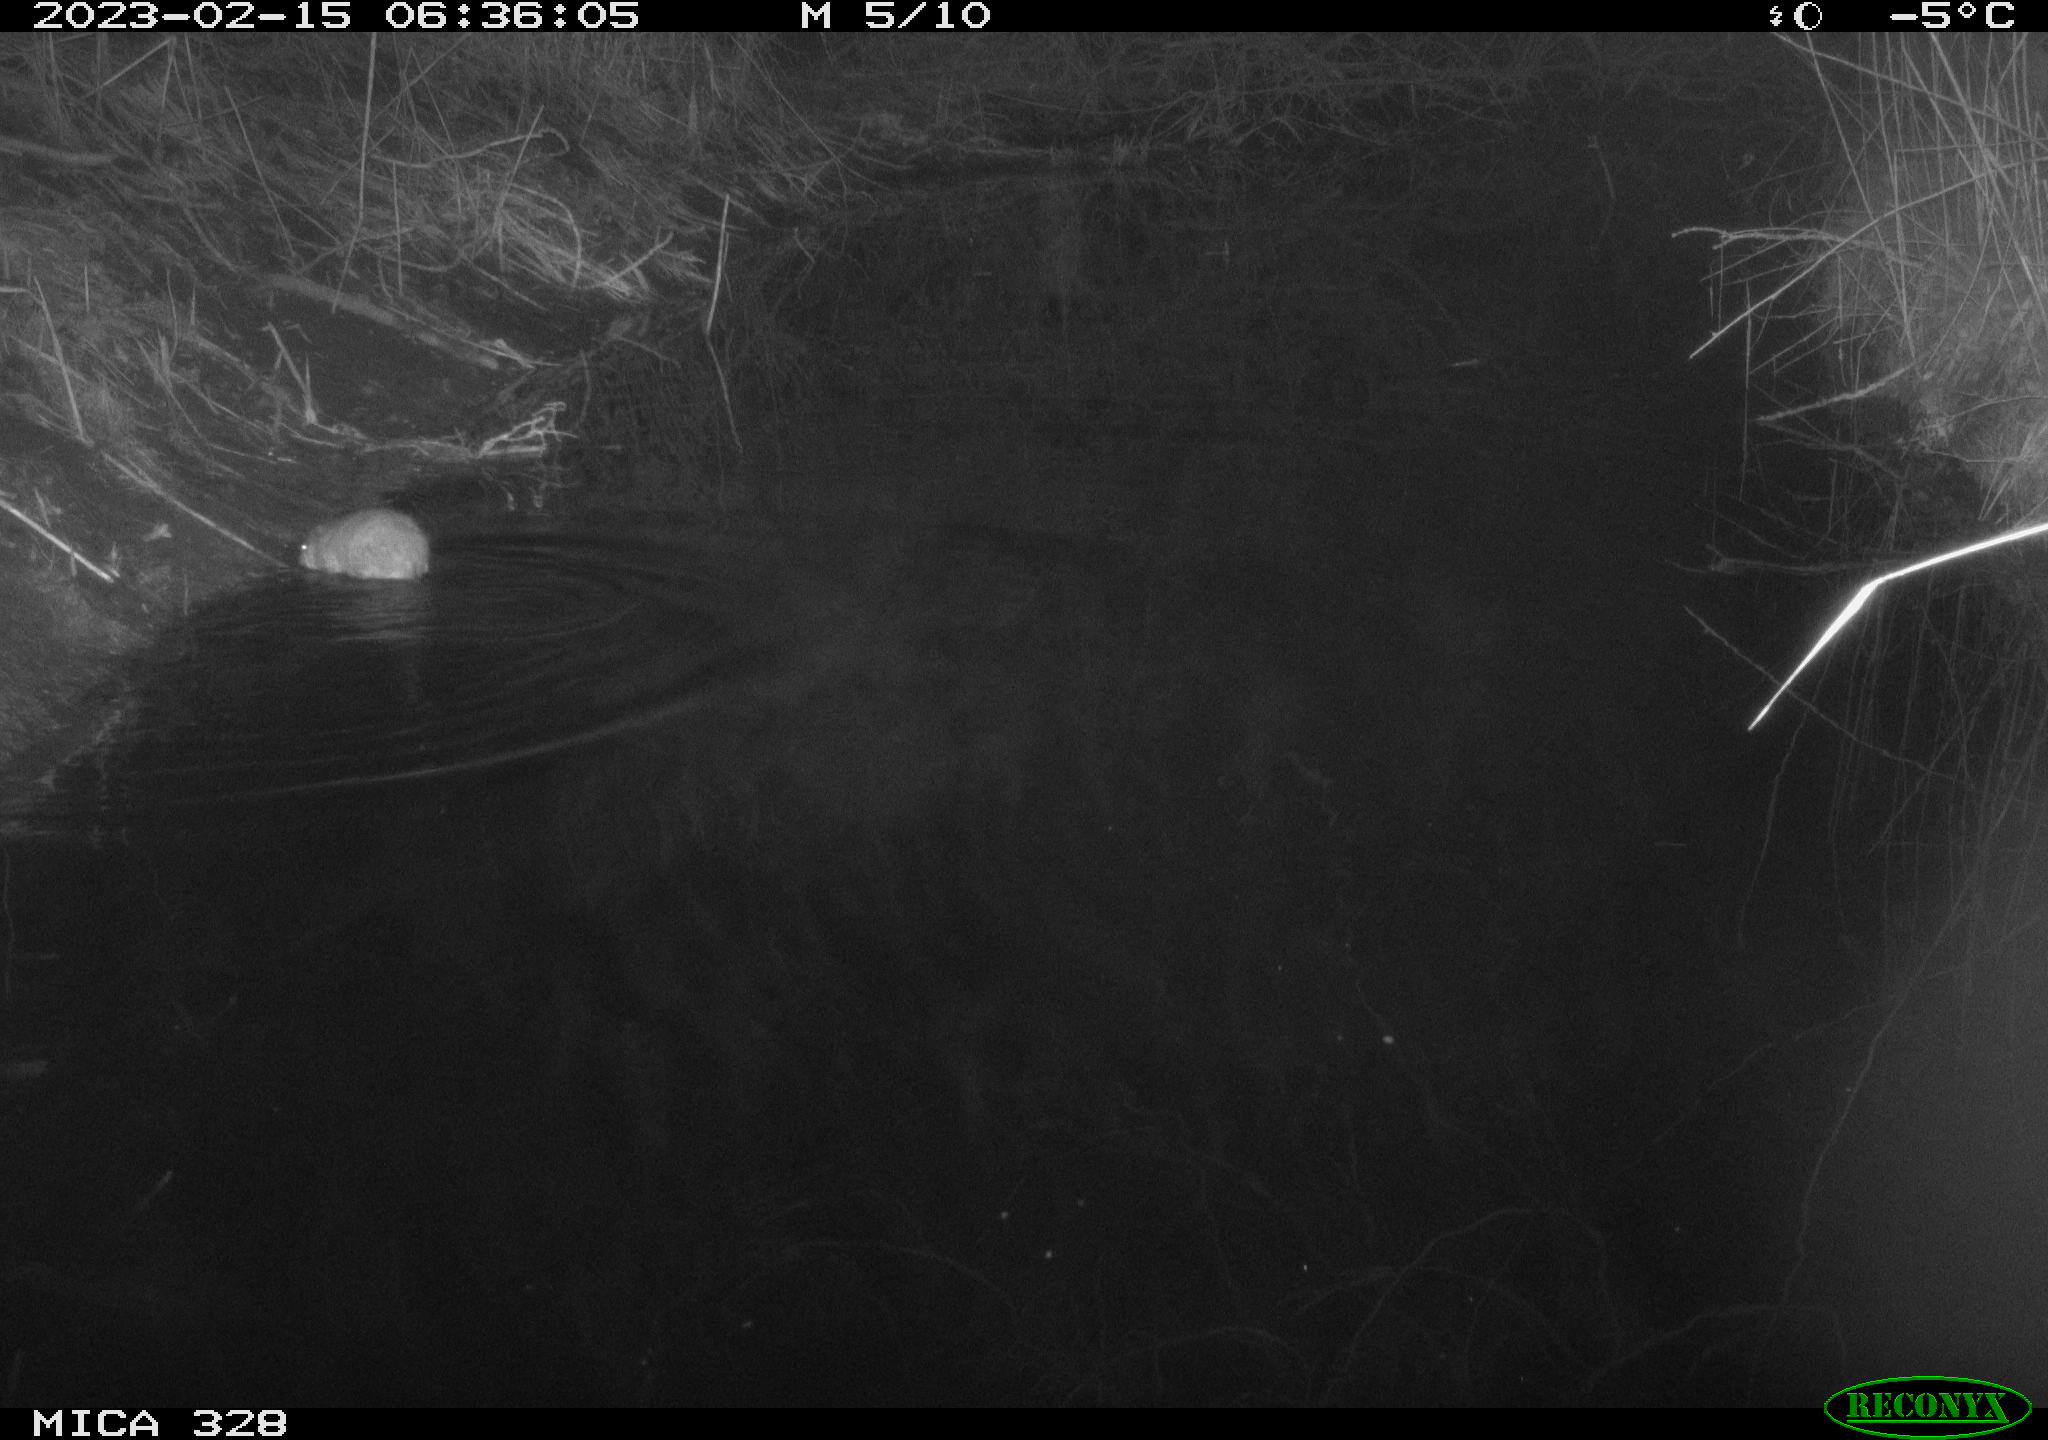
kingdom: Animalia
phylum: Chordata
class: Mammalia
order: Rodentia
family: Cricetidae
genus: Ondatra
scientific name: Ondatra zibethicus
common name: Muskrat
